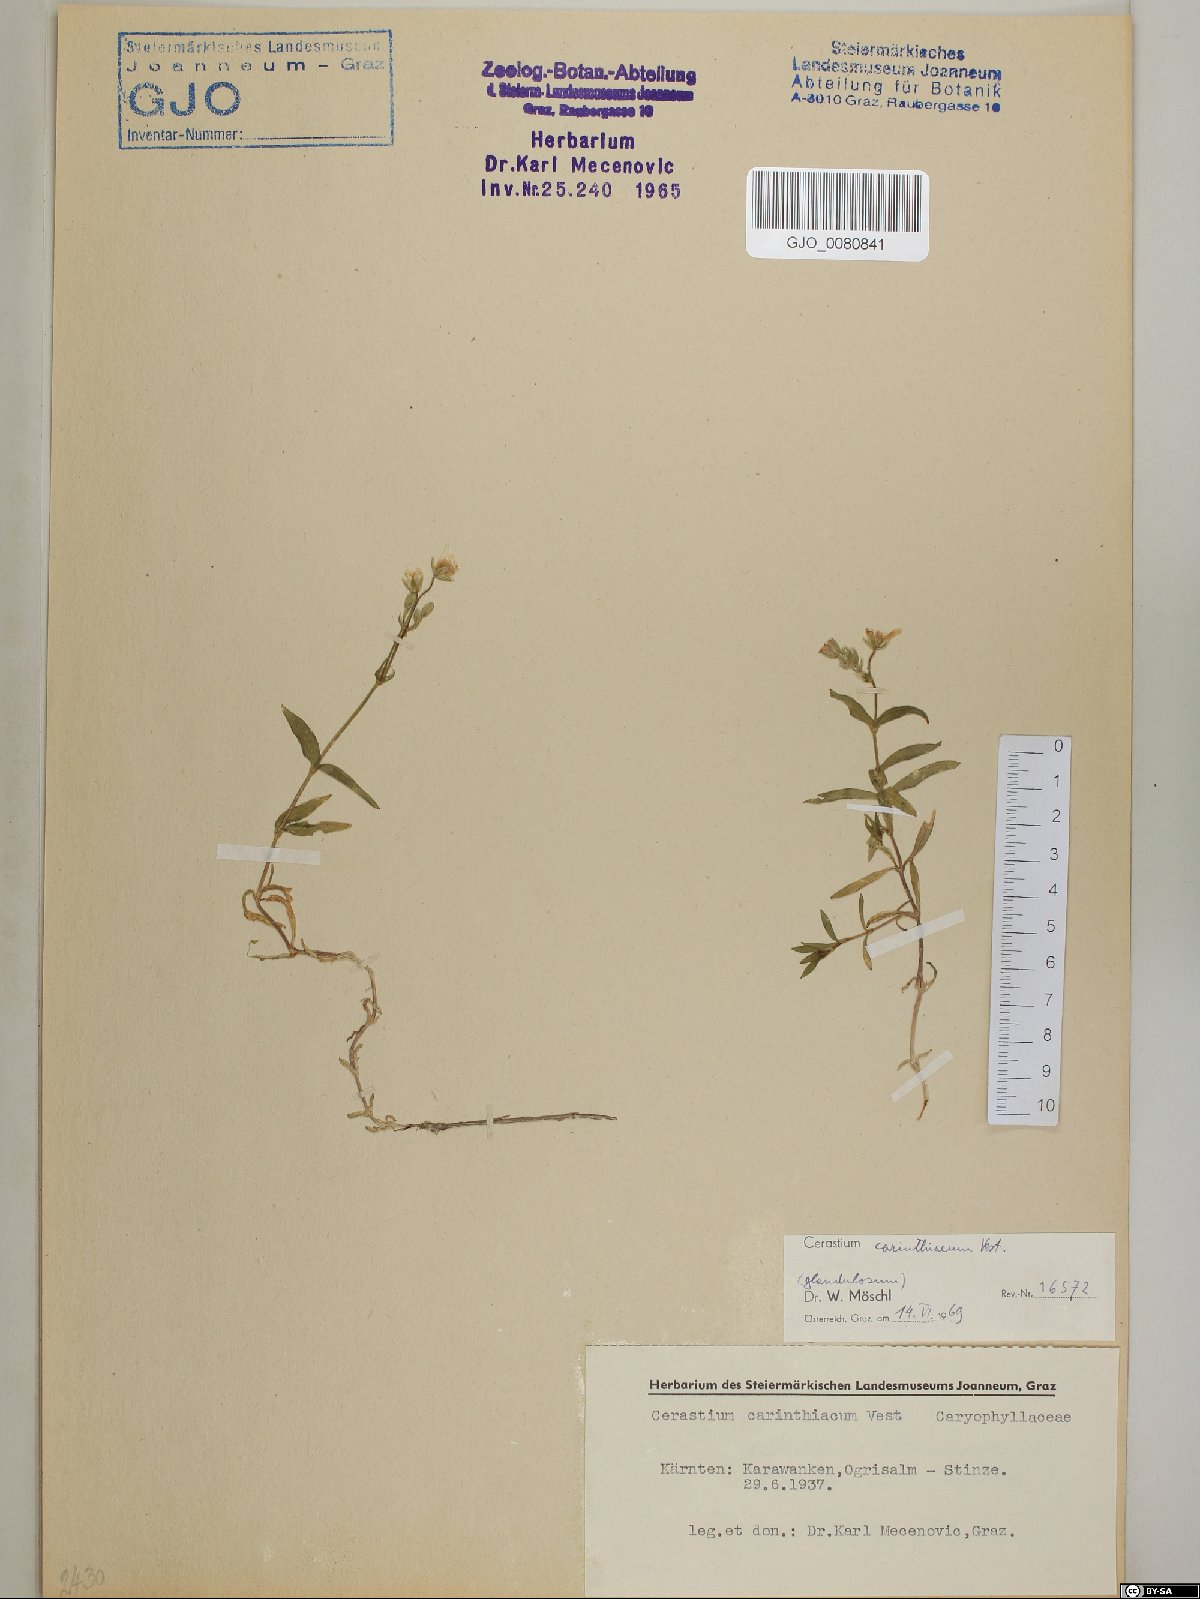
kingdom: Plantae
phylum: Tracheophyta
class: Magnoliopsida
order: Caryophyllales
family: Caryophyllaceae
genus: Cerastium
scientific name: Cerastium carinthiacum
